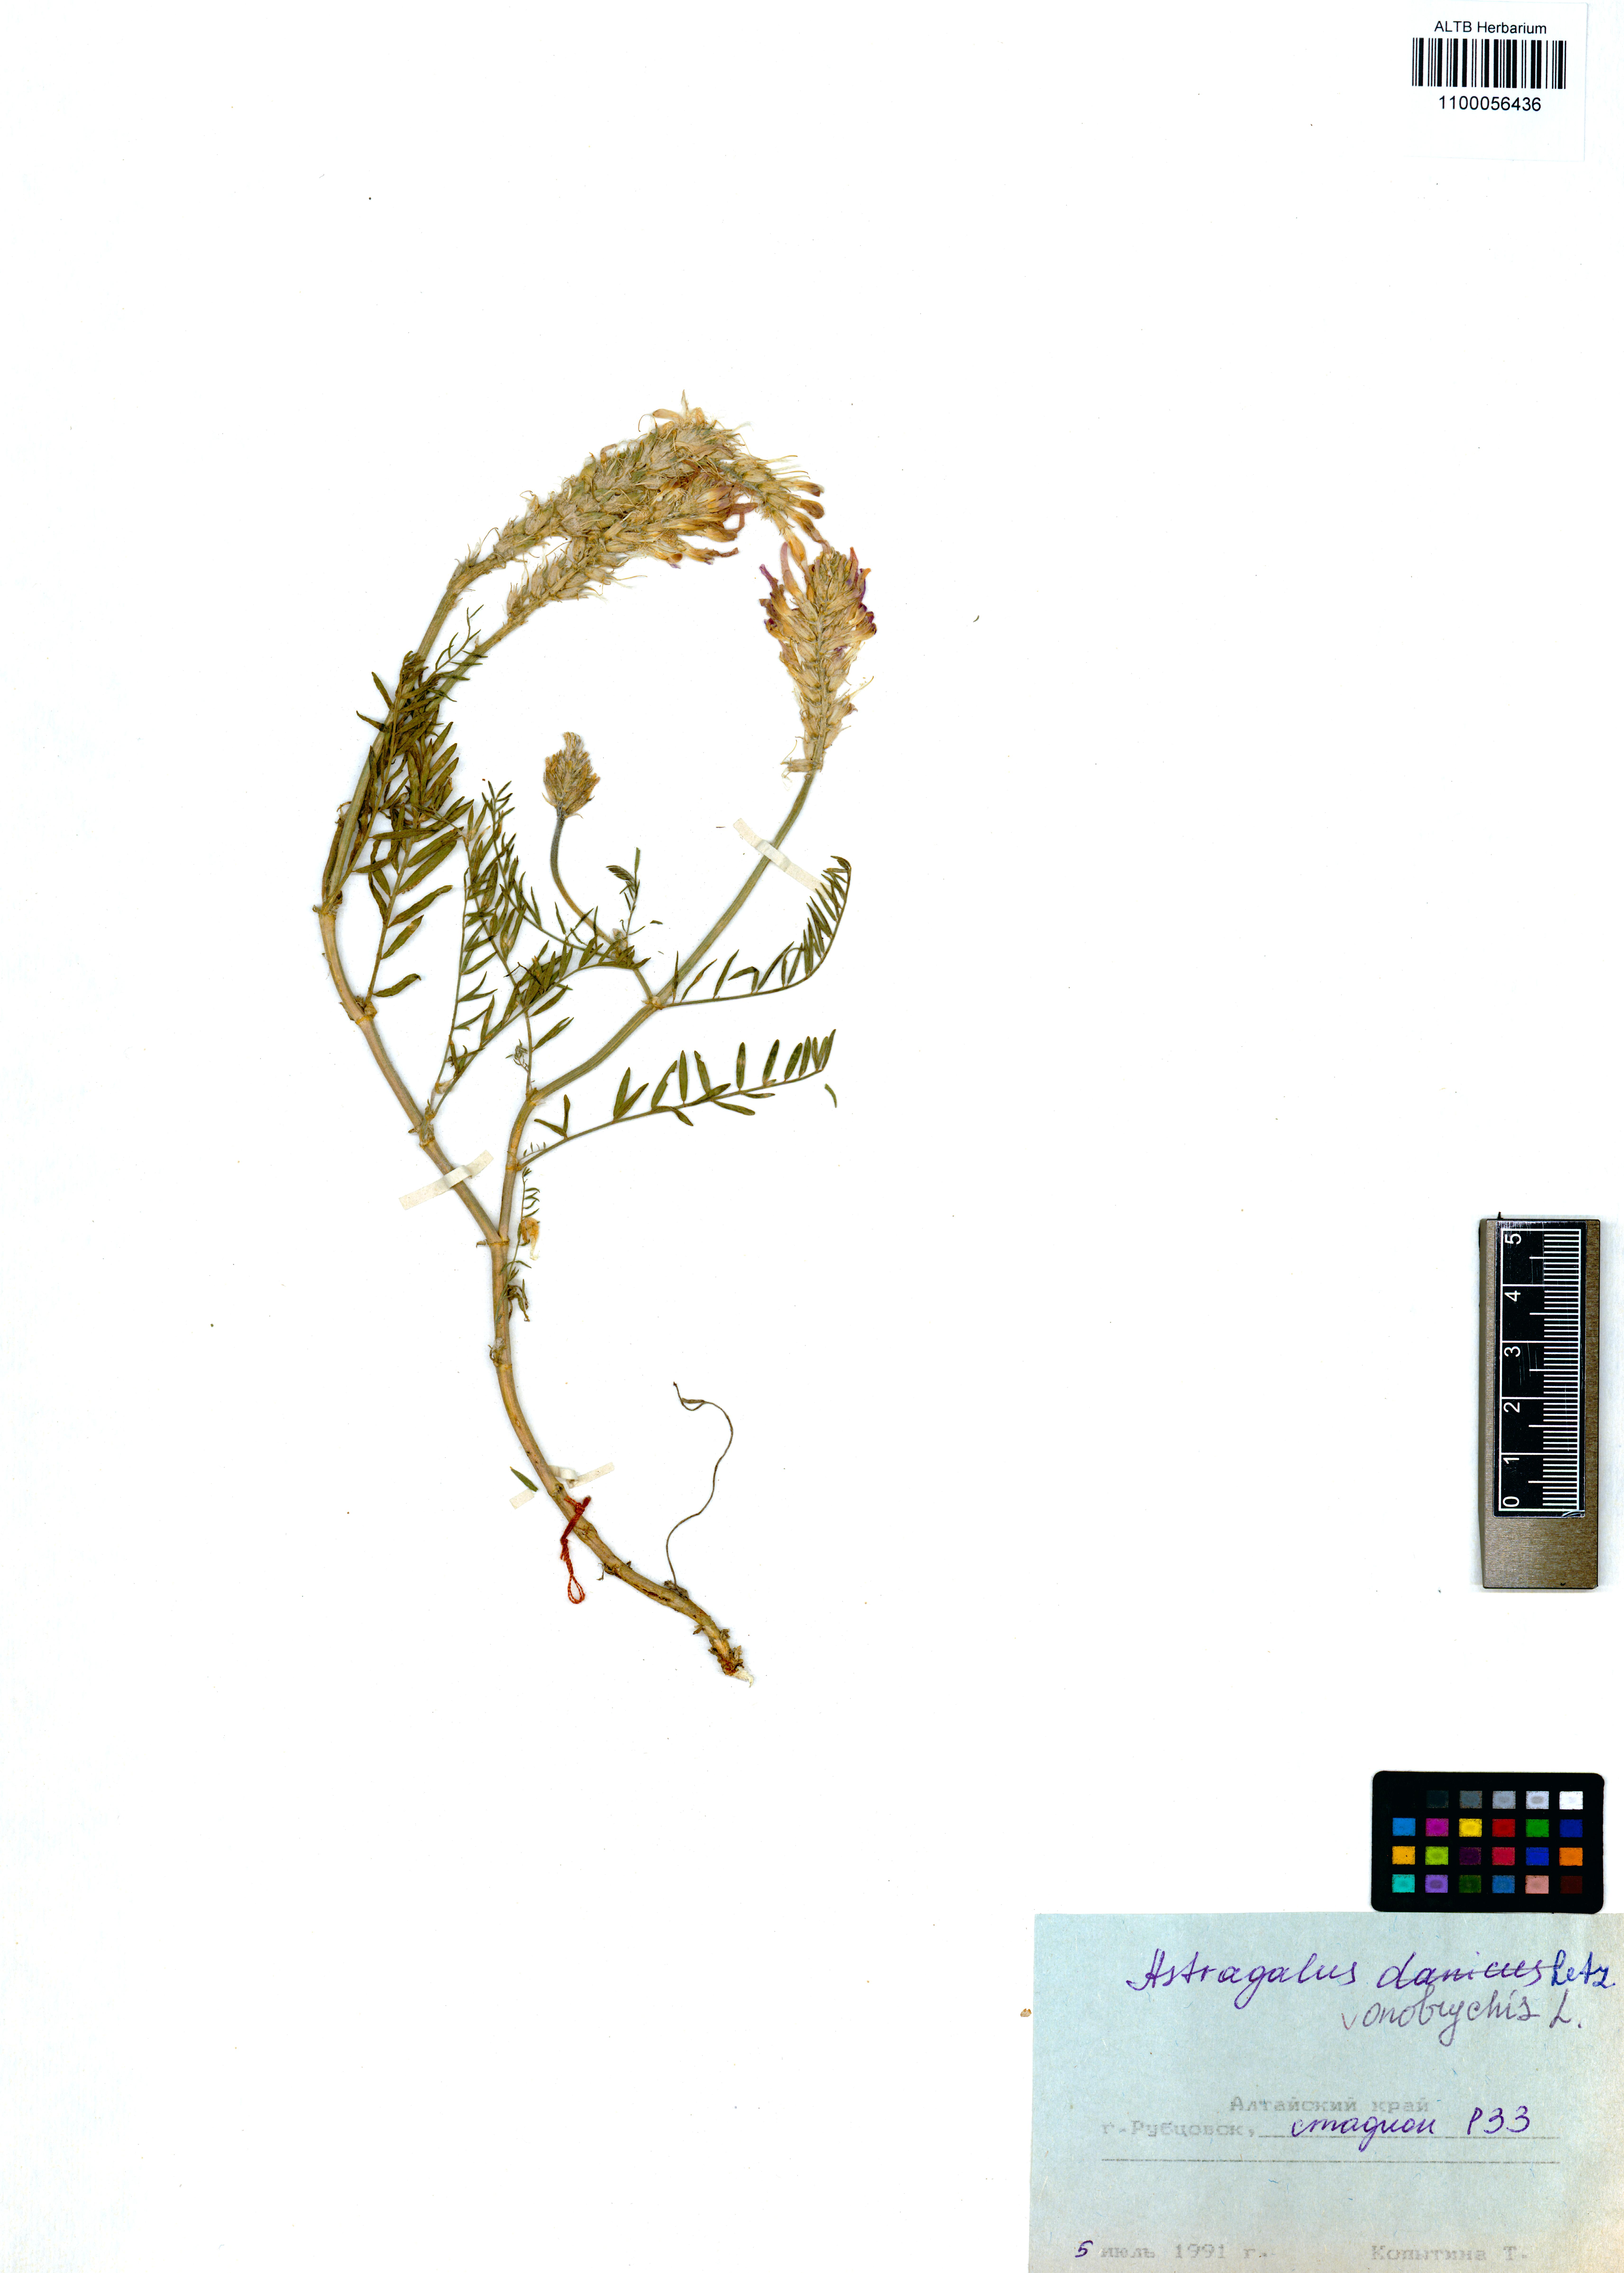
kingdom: Plantae
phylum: Tracheophyta
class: Magnoliopsida
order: Fabales
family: Fabaceae
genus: Astragalus
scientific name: Astragalus onobrychis
